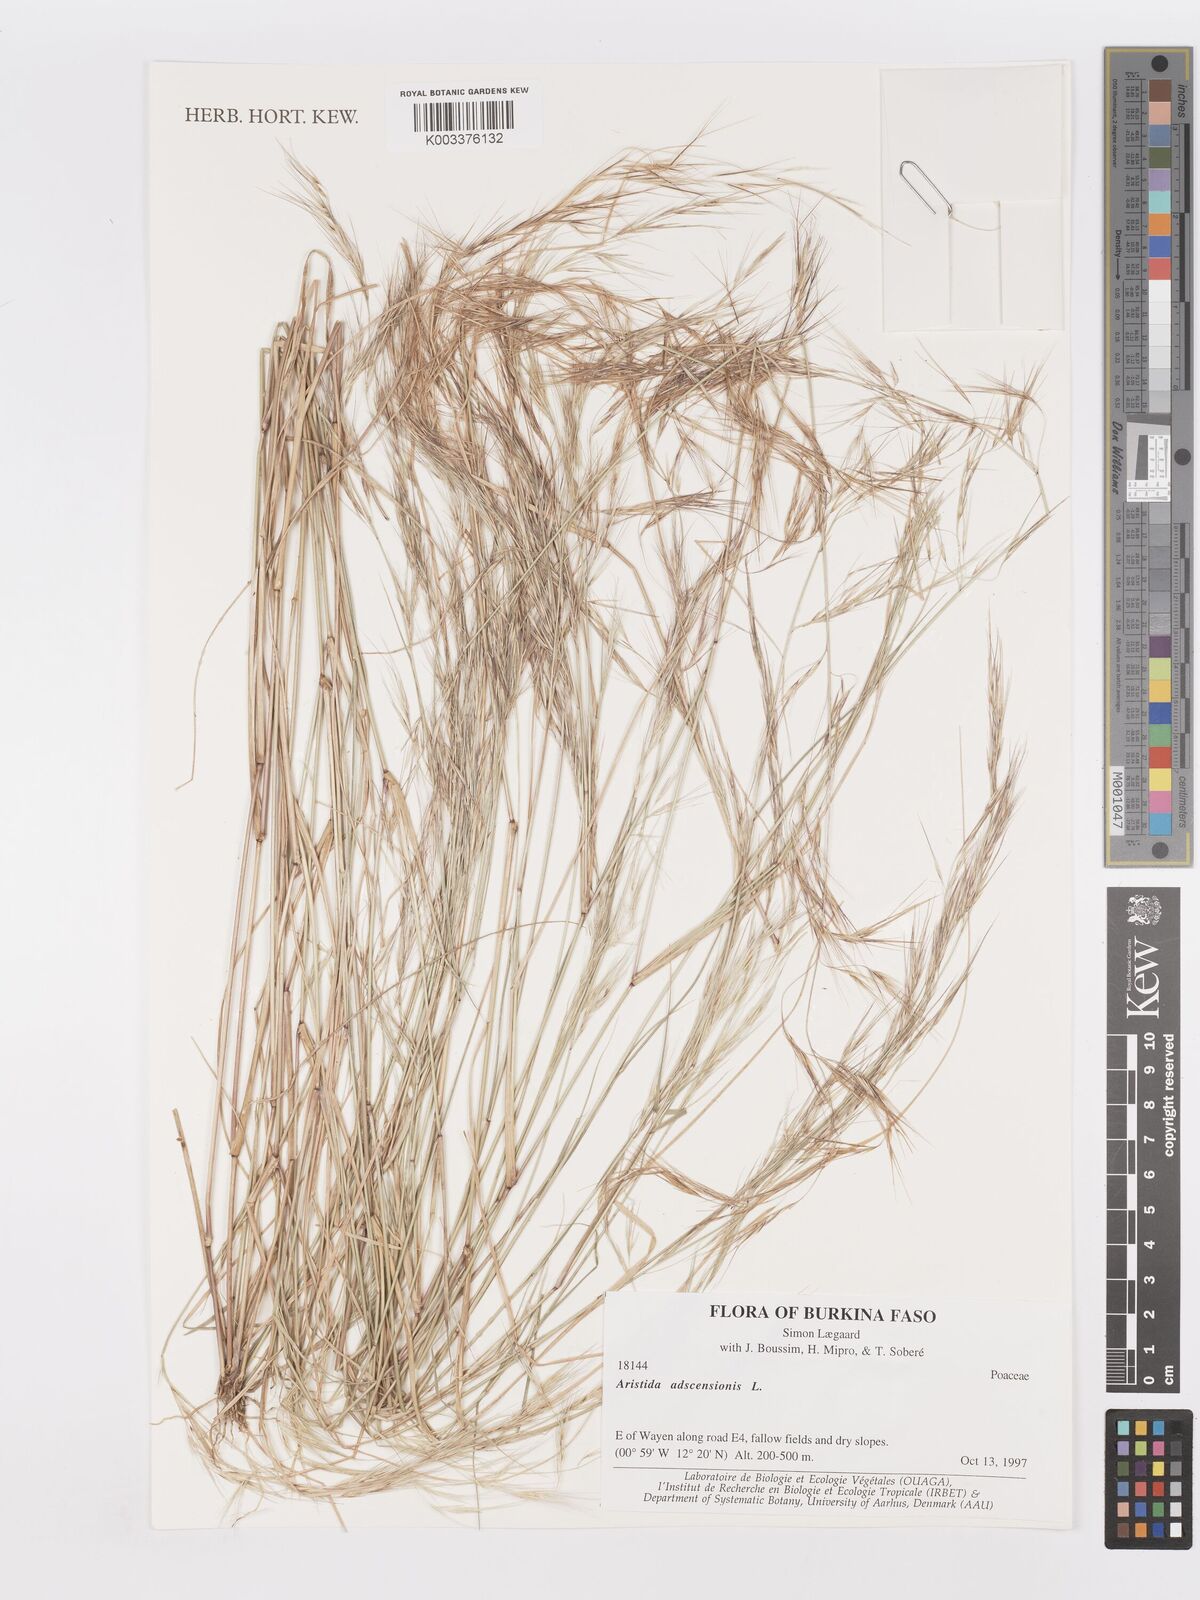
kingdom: Plantae
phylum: Tracheophyta
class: Liliopsida
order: Poales
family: Poaceae
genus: Aristida
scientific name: Aristida adscensionis
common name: Sixweeks threeawn
